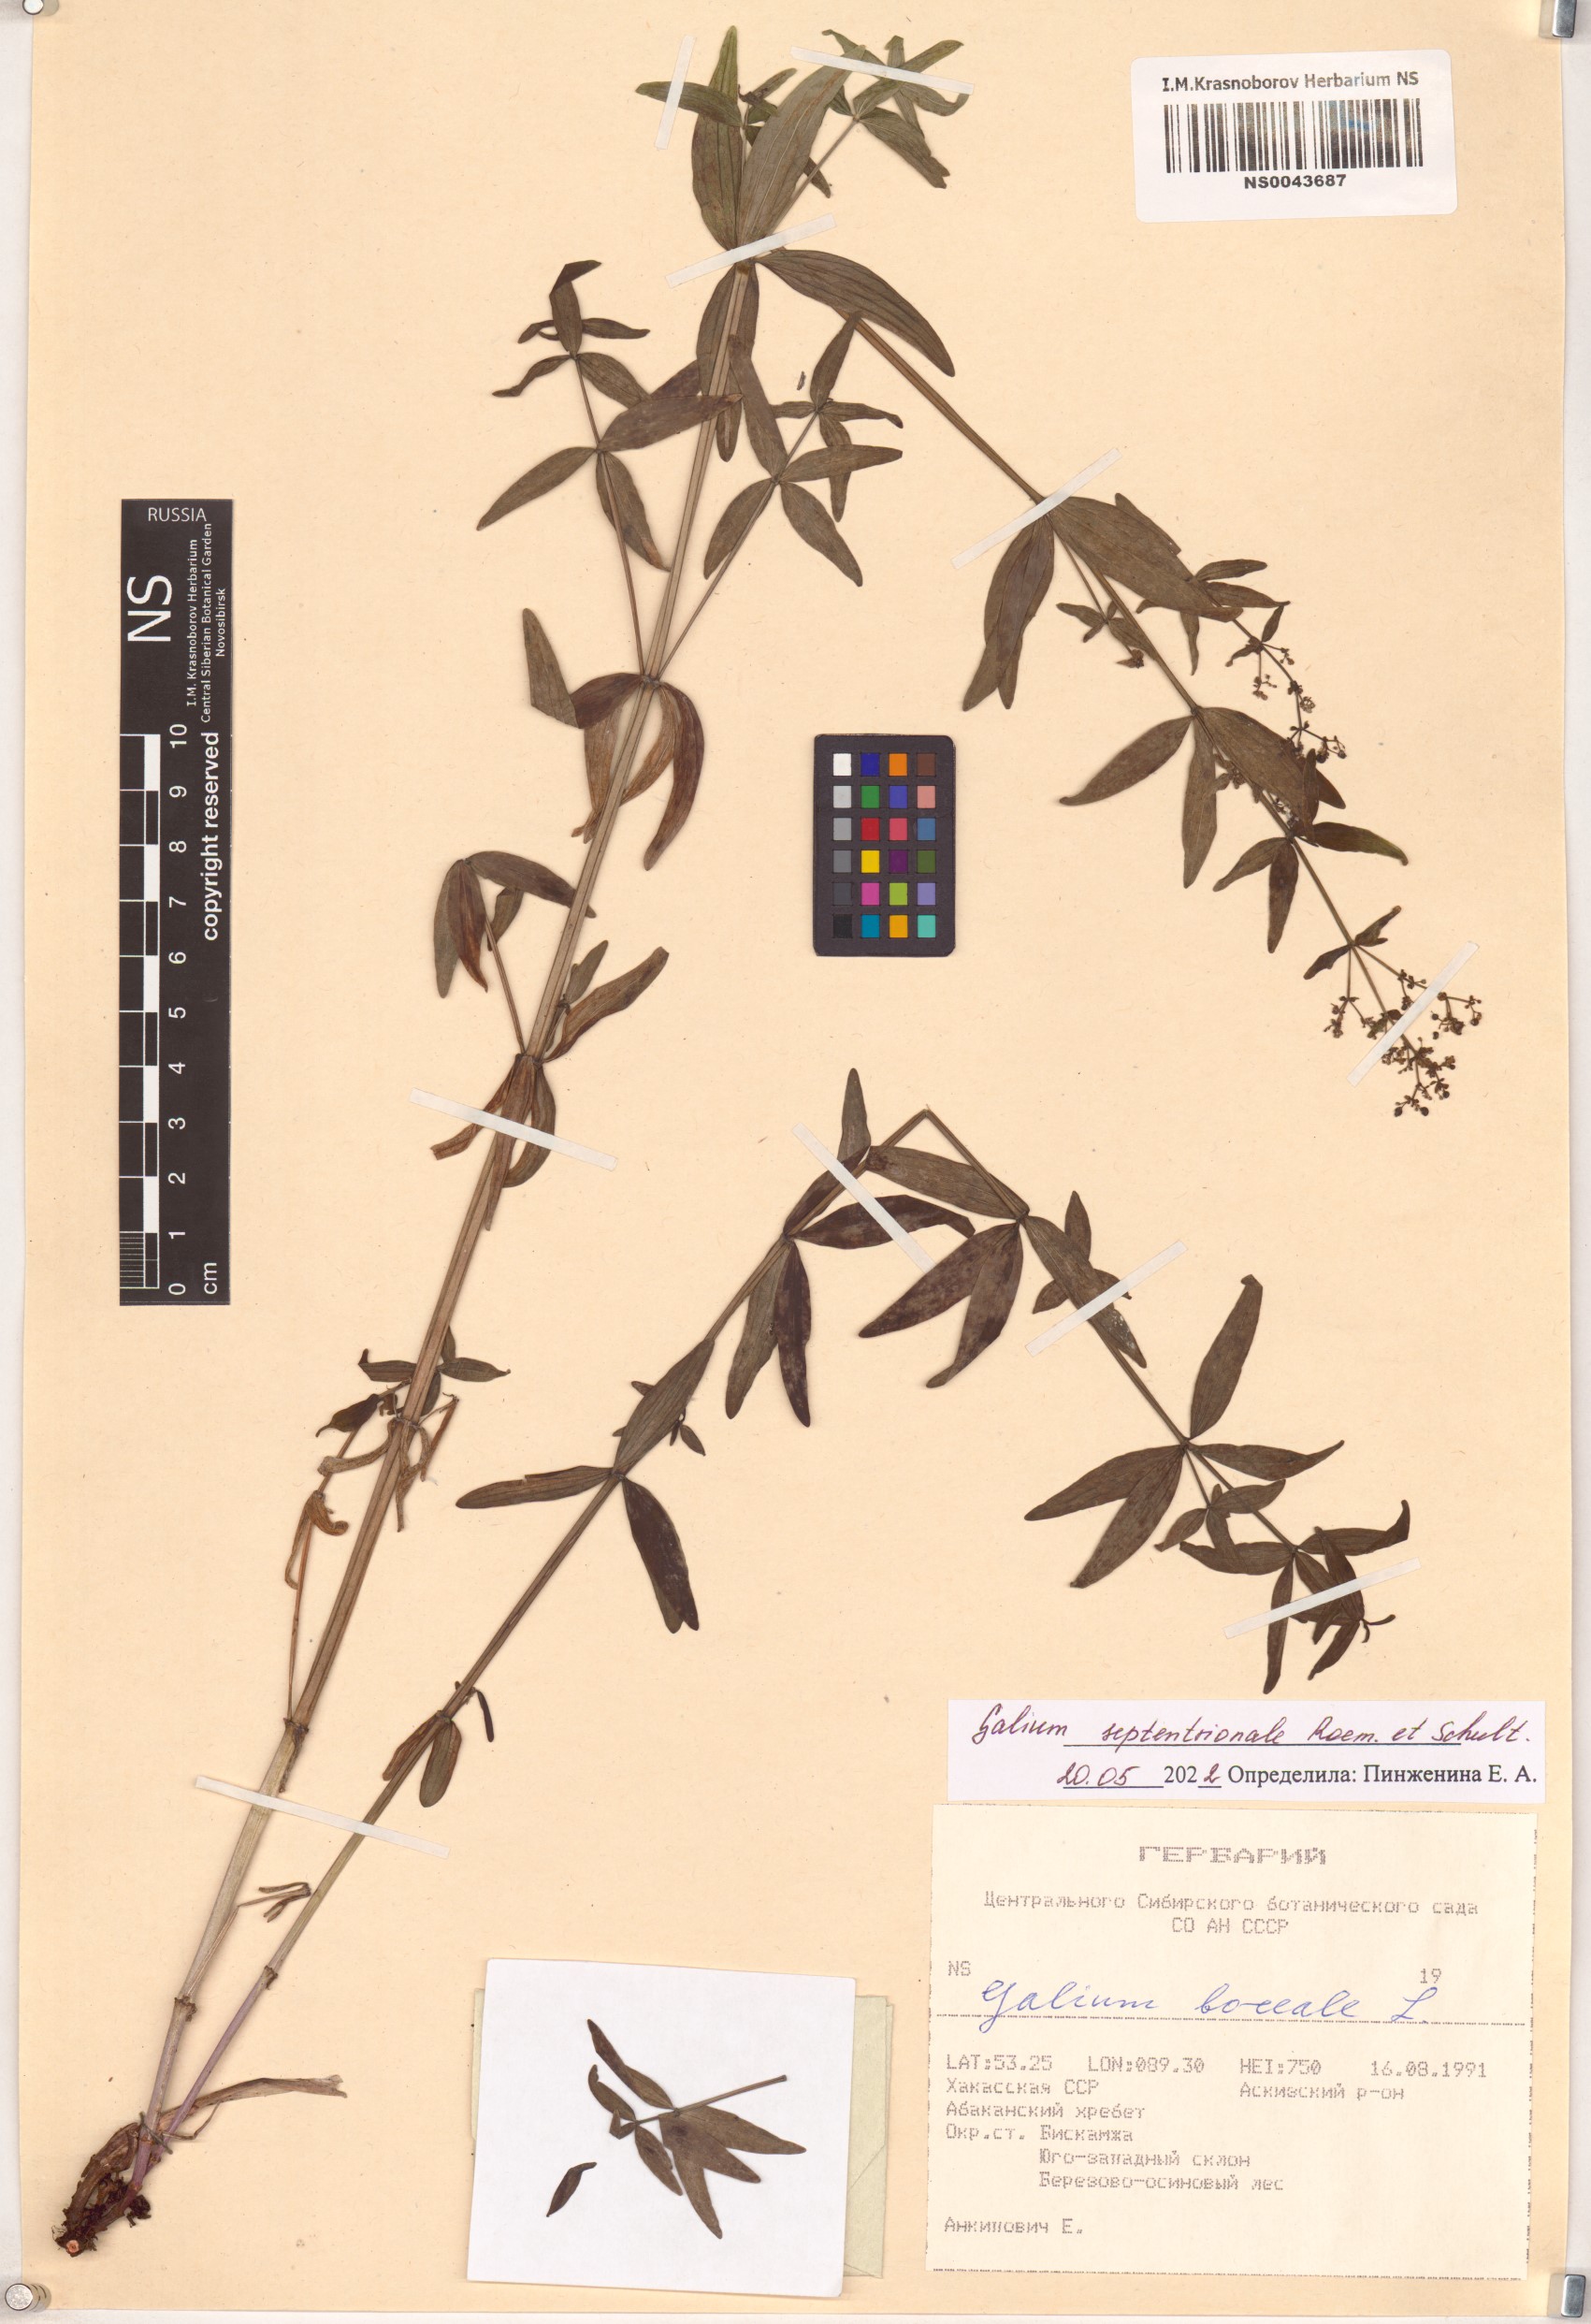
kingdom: Plantae
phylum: Tracheophyta
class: Magnoliopsida
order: Gentianales
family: Rubiaceae
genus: Galium
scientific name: Galium boreale
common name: Northern bedstraw
